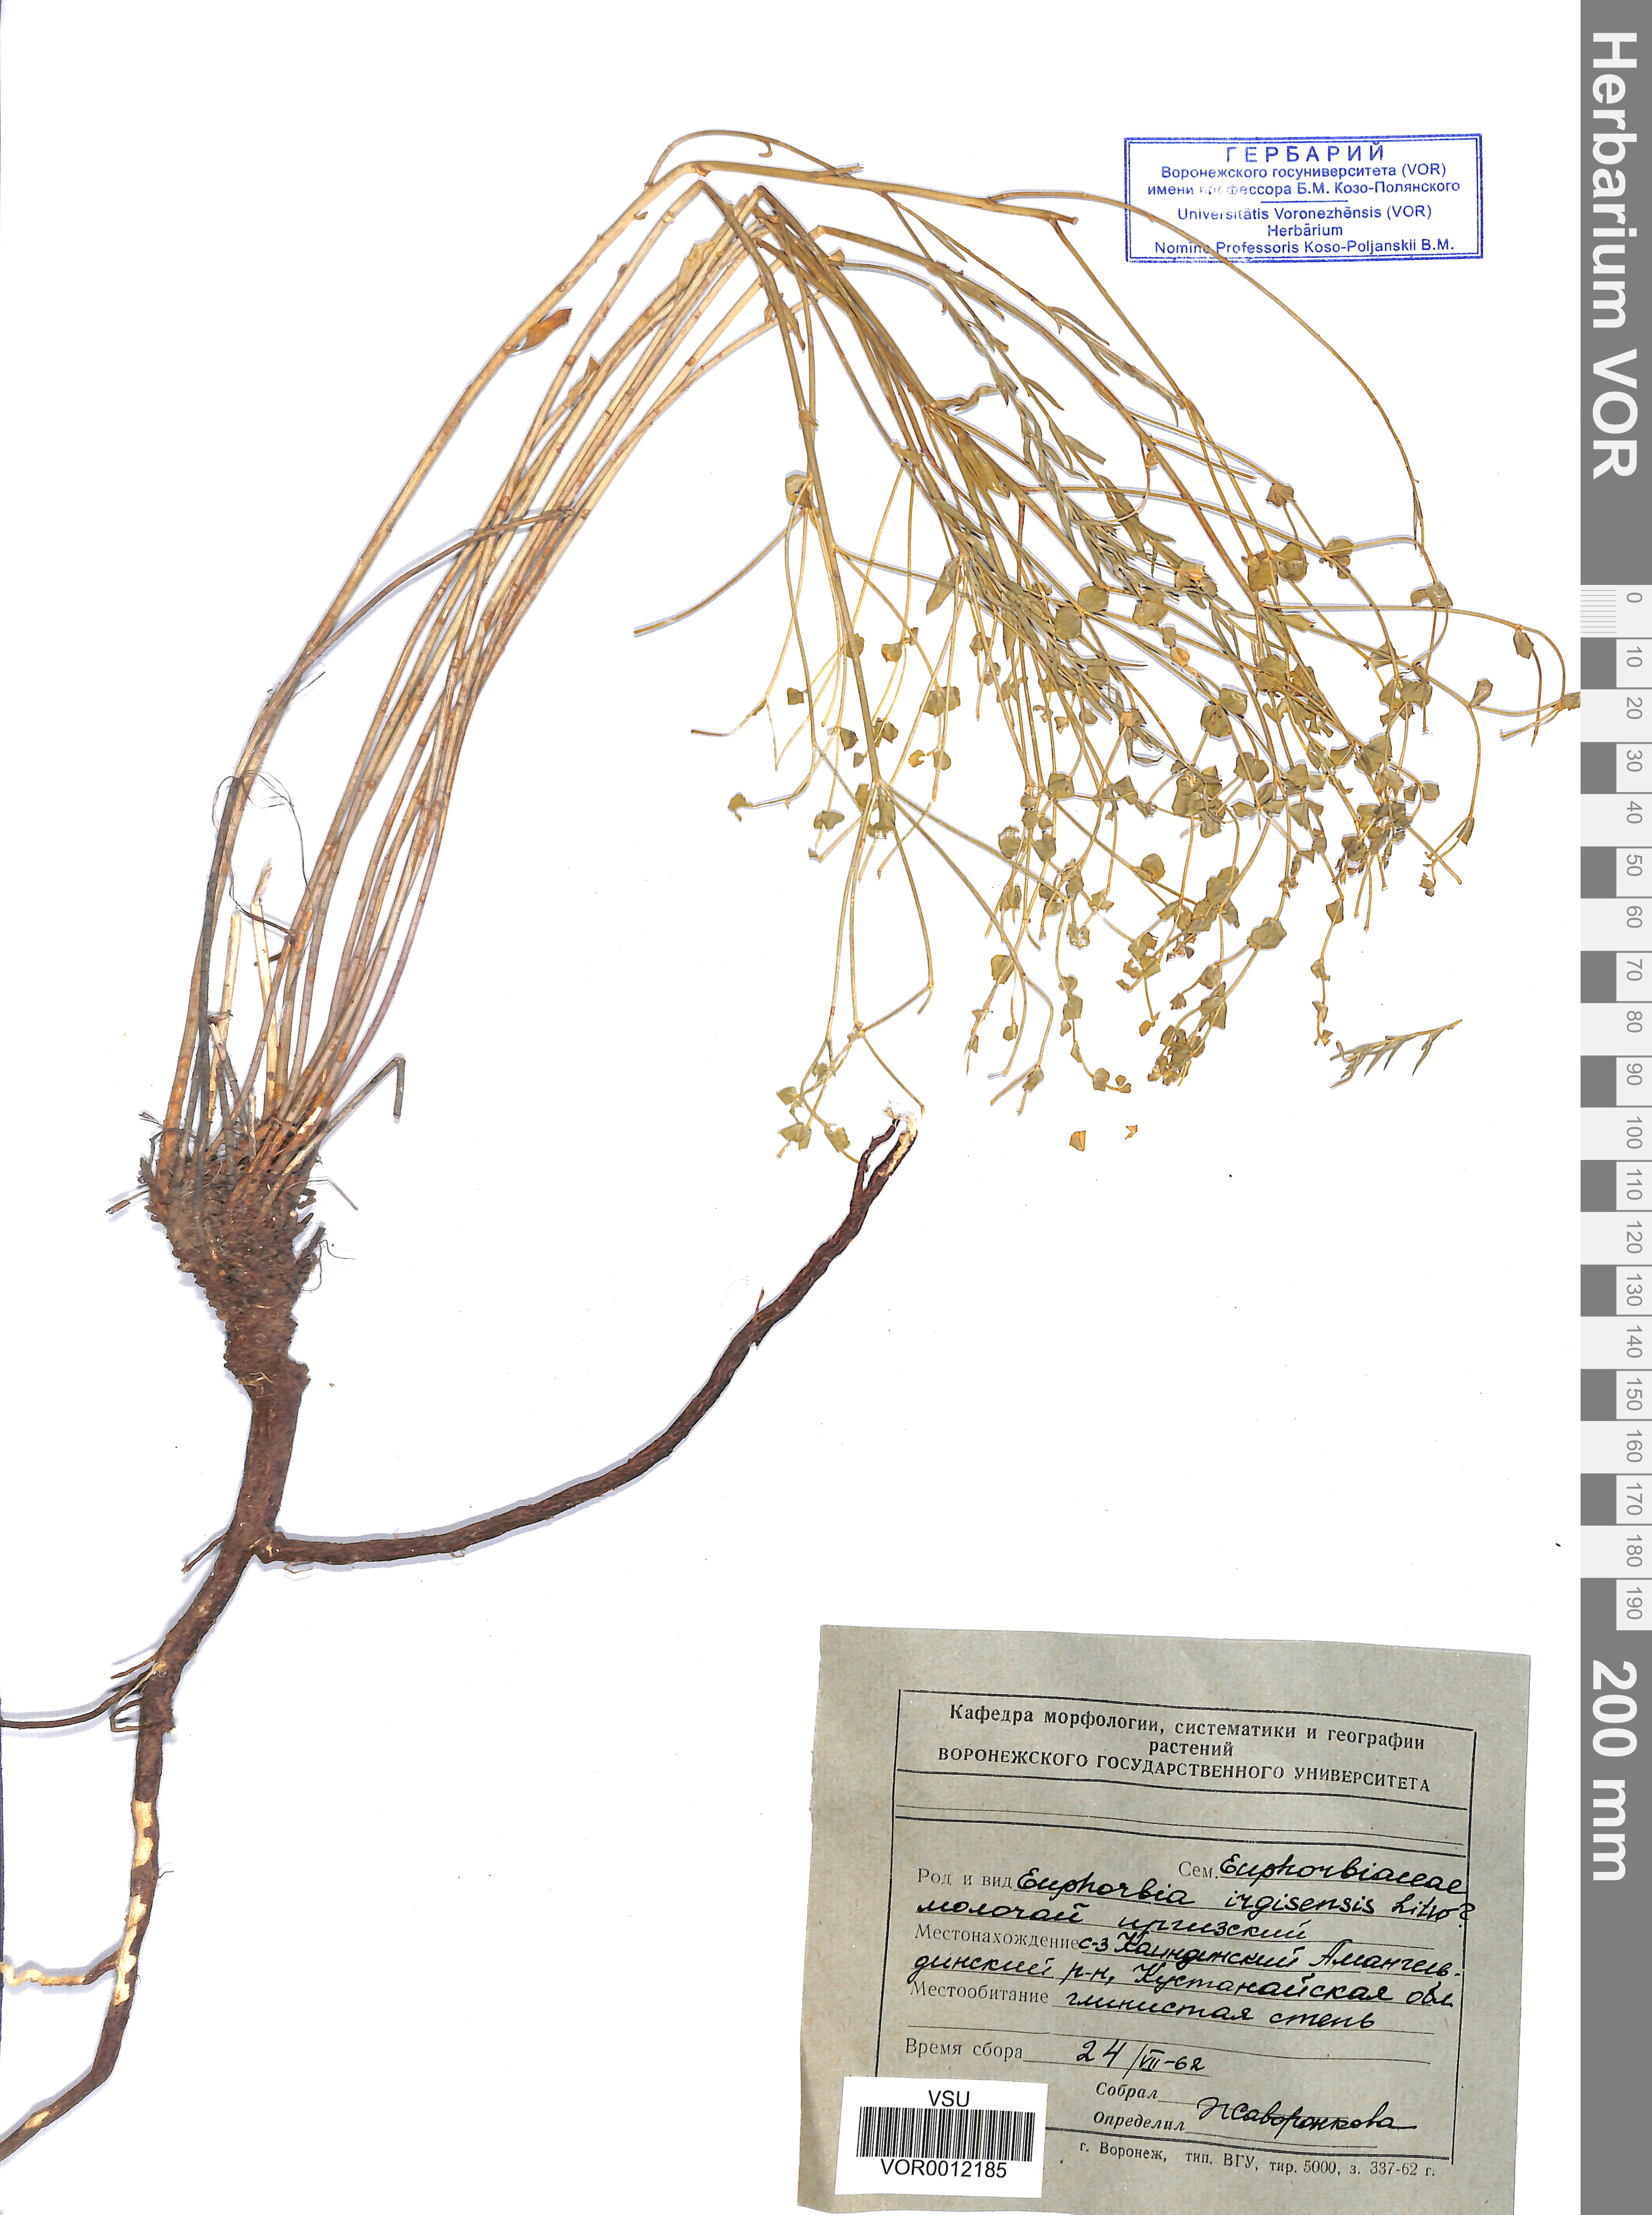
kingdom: Plantae
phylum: Tracheophyta
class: Magnoliopsida
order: Malpighiales
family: Euphorbiaceae
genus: Euphorbia
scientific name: Euphorbia irgisensis
